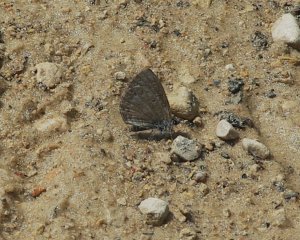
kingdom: Animalia
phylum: Arthropoda
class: Insecta
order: Lepidoptera
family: Lycaenidae
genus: Celastrina
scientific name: Celastrina lucia
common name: Northern Spring Azure
